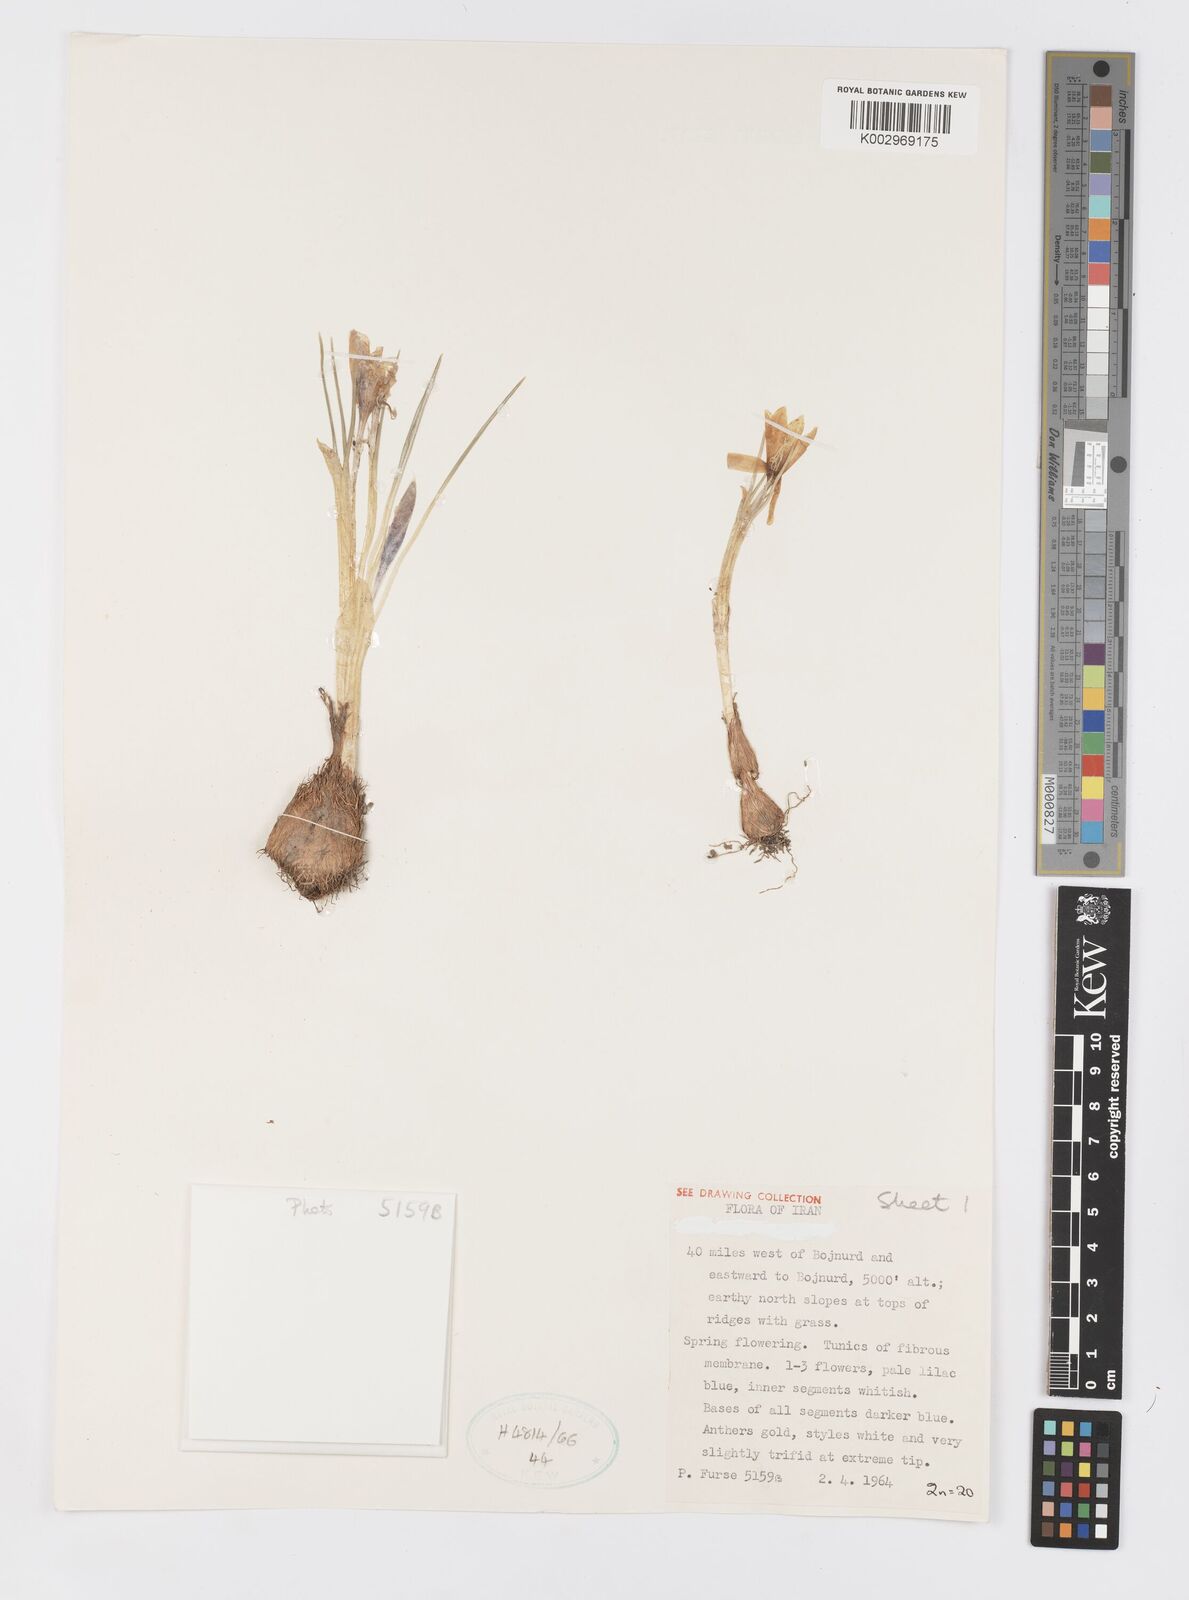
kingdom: Plantae
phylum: Tracheophyta
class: Liliopsida
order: Asparagales
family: Iridaceae
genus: Crocus
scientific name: Crocus michelsonii
